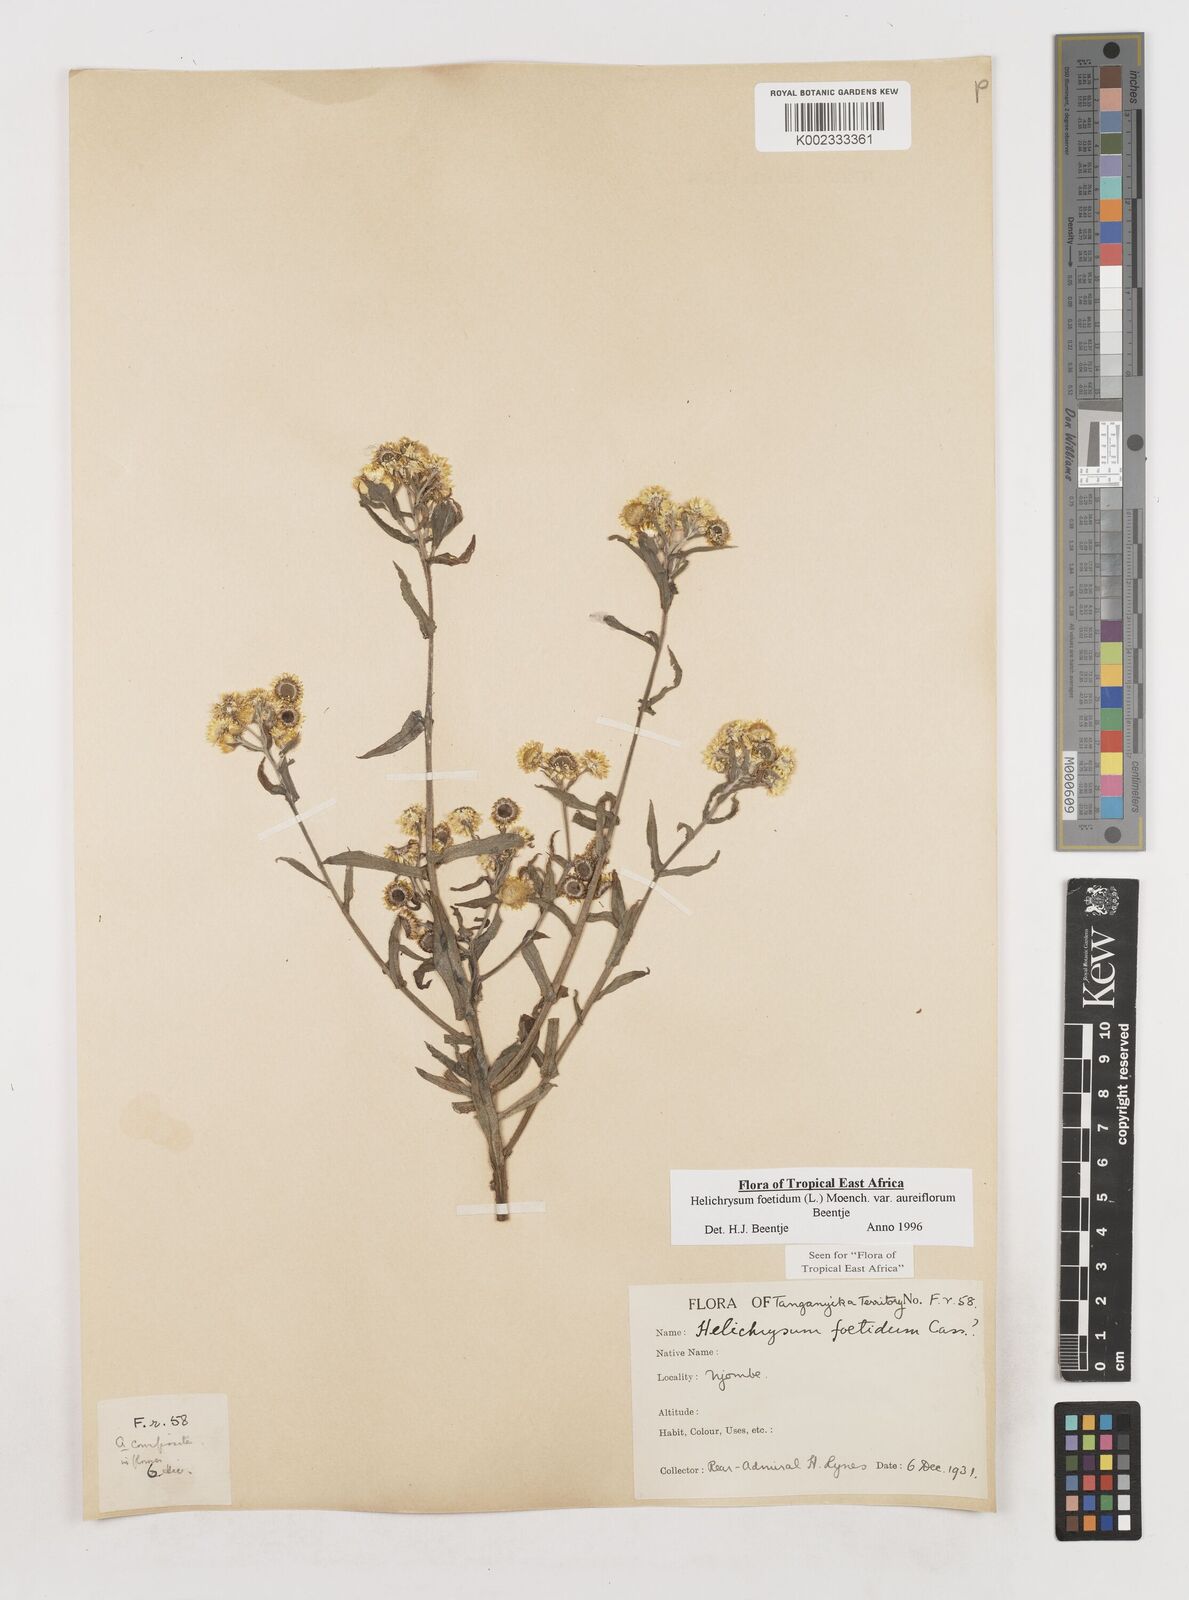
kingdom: Plantae
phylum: Tracheophyta
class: Magnoliopsida
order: Asterales
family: Asteraceae
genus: Helichrysum
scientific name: Helichrysum foetidum
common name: Stinking everlasting
